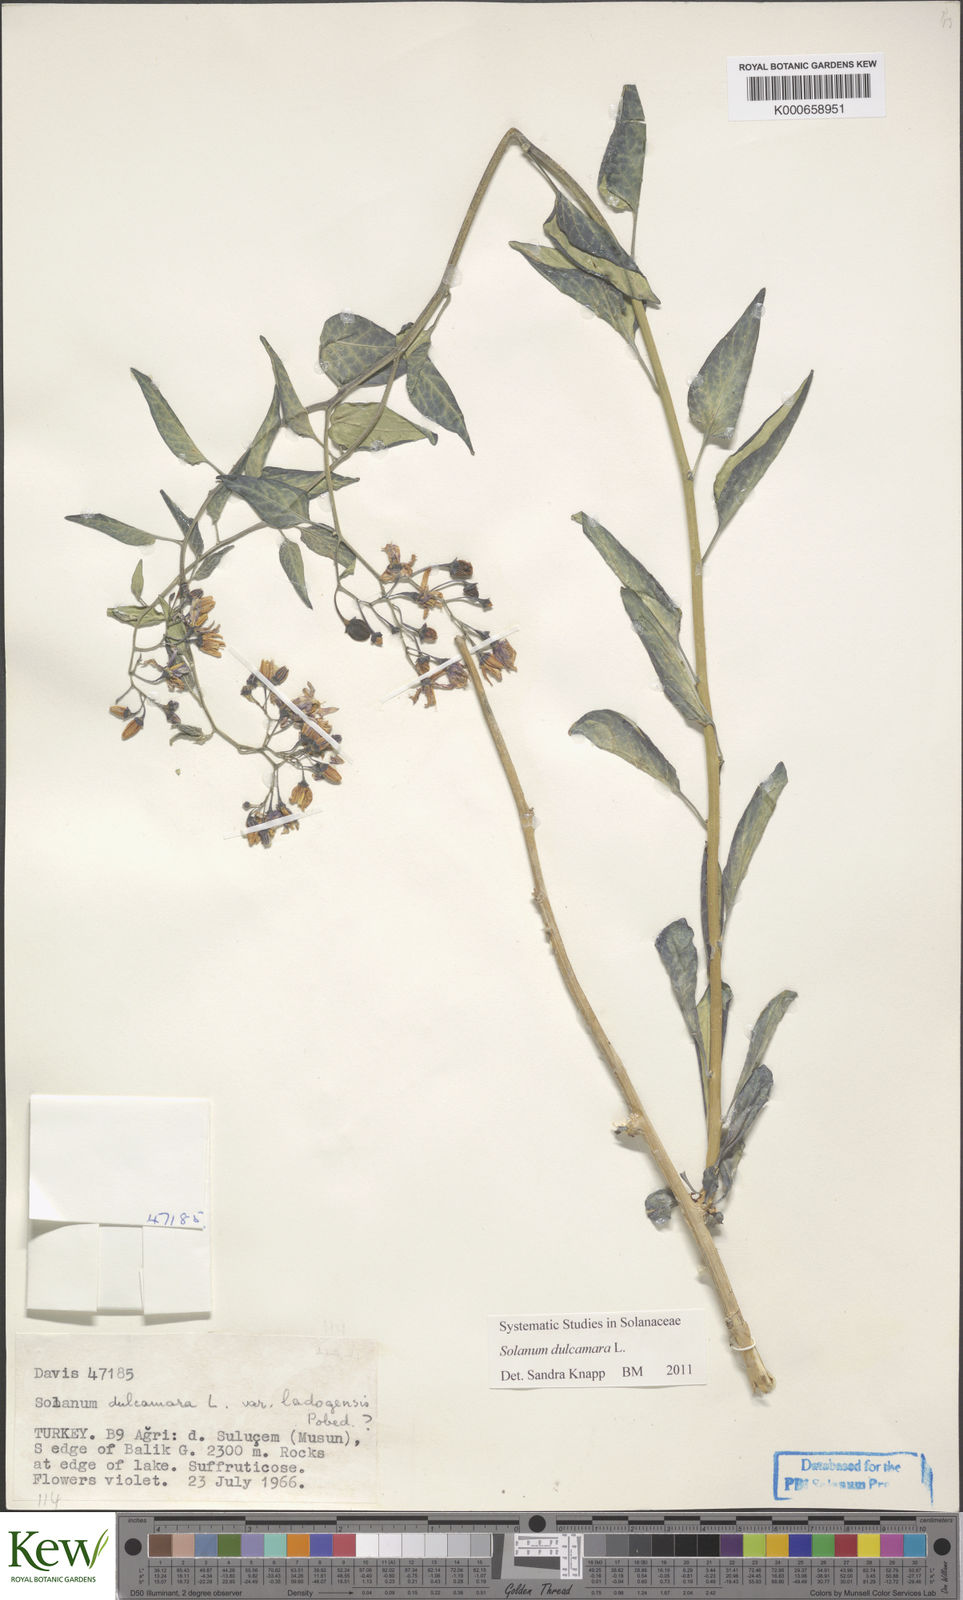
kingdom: Plantae
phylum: Tracheophyta
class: Magnoliopsida
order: Solanales
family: Solanaceae
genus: Solanum
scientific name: Solanum dulcamara
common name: Climbing nightshade
